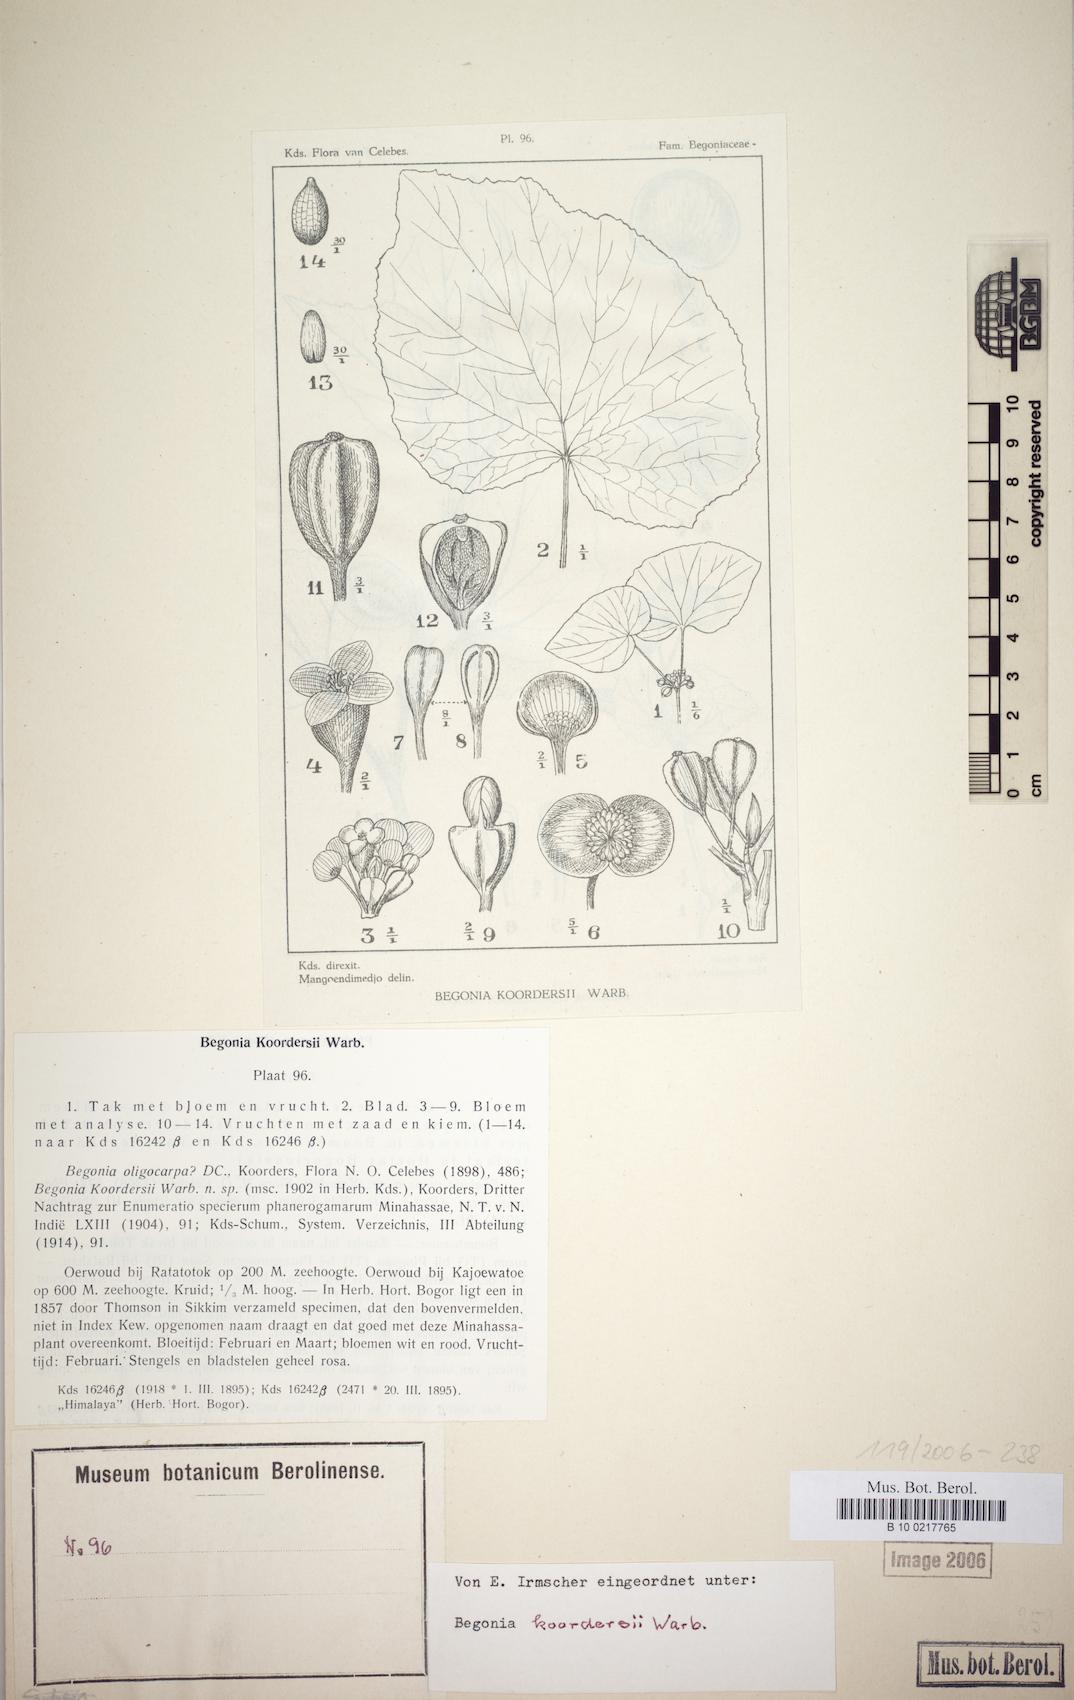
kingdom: Plantae
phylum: Tracheophyta
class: Magnoliopsida
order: Cucurbitales
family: Begoniaceae
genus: Begonia
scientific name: Begonia koordersii
